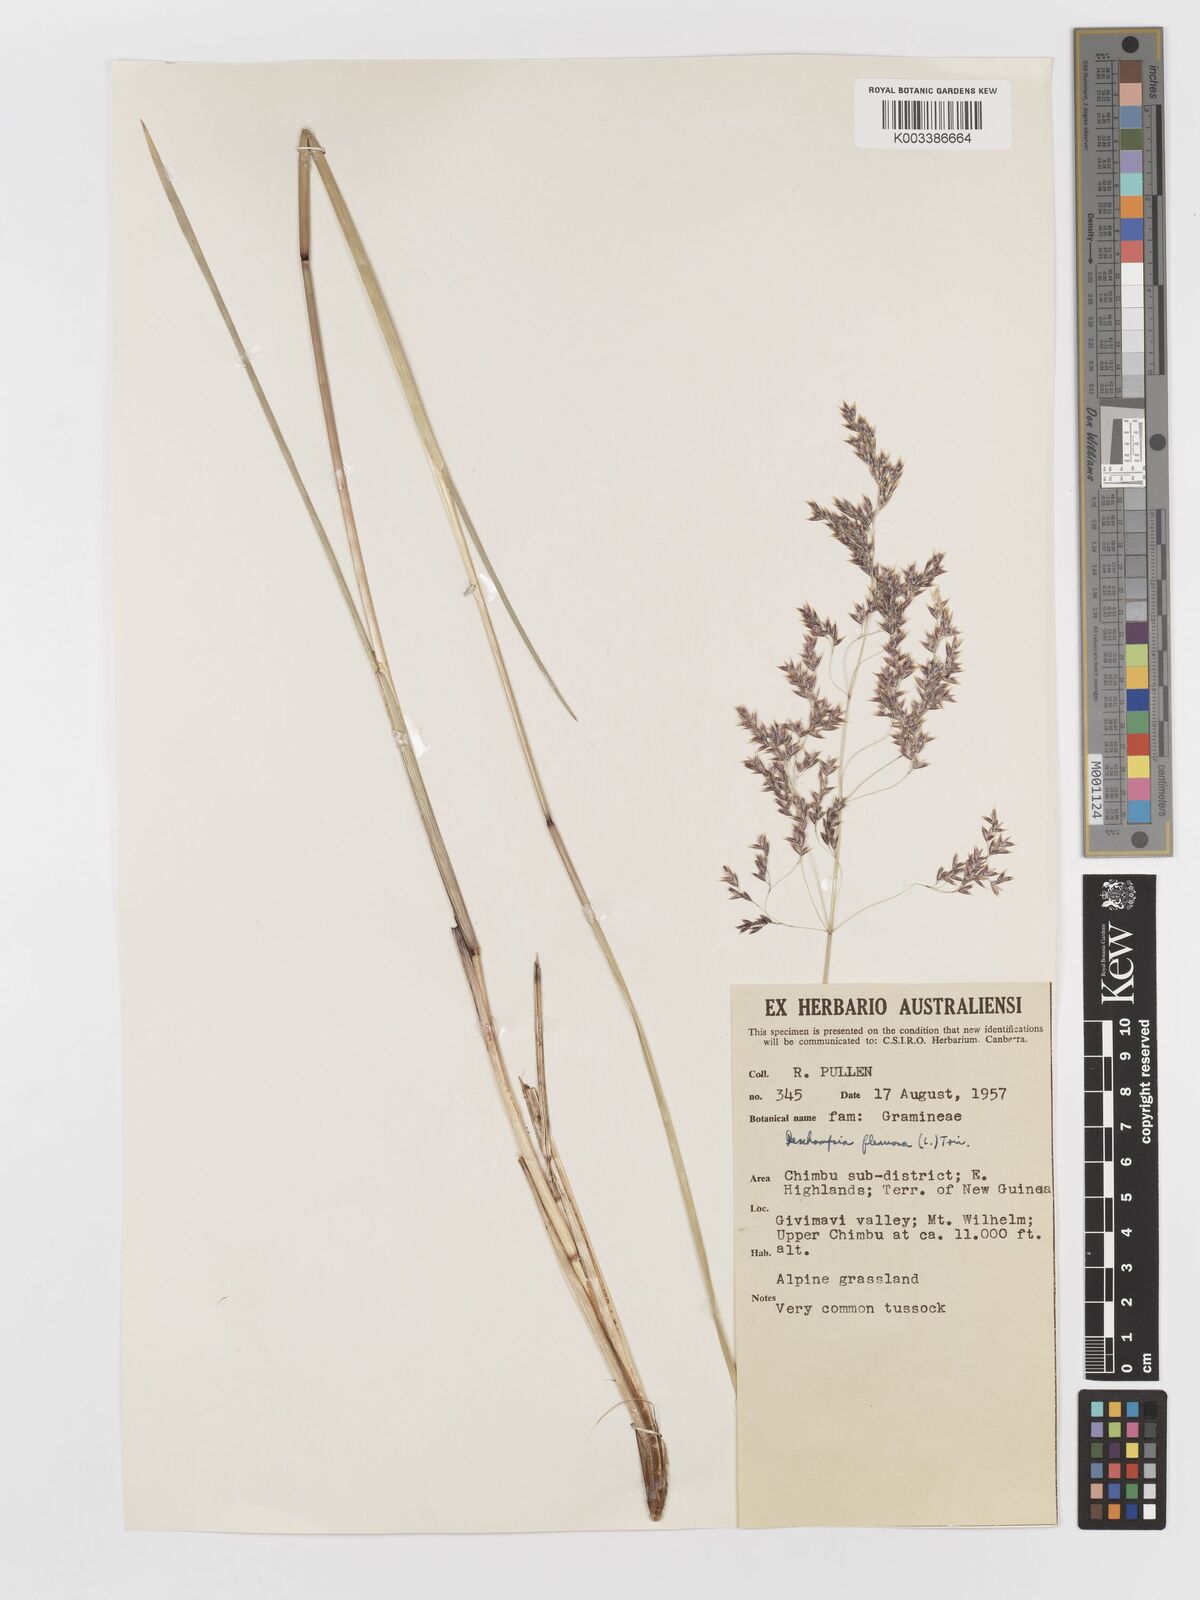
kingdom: Plantae
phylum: Tracheophyta
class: Liliopsida
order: Poales
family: Poaceae
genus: Deschampsia
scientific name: Deschampsia klossii
